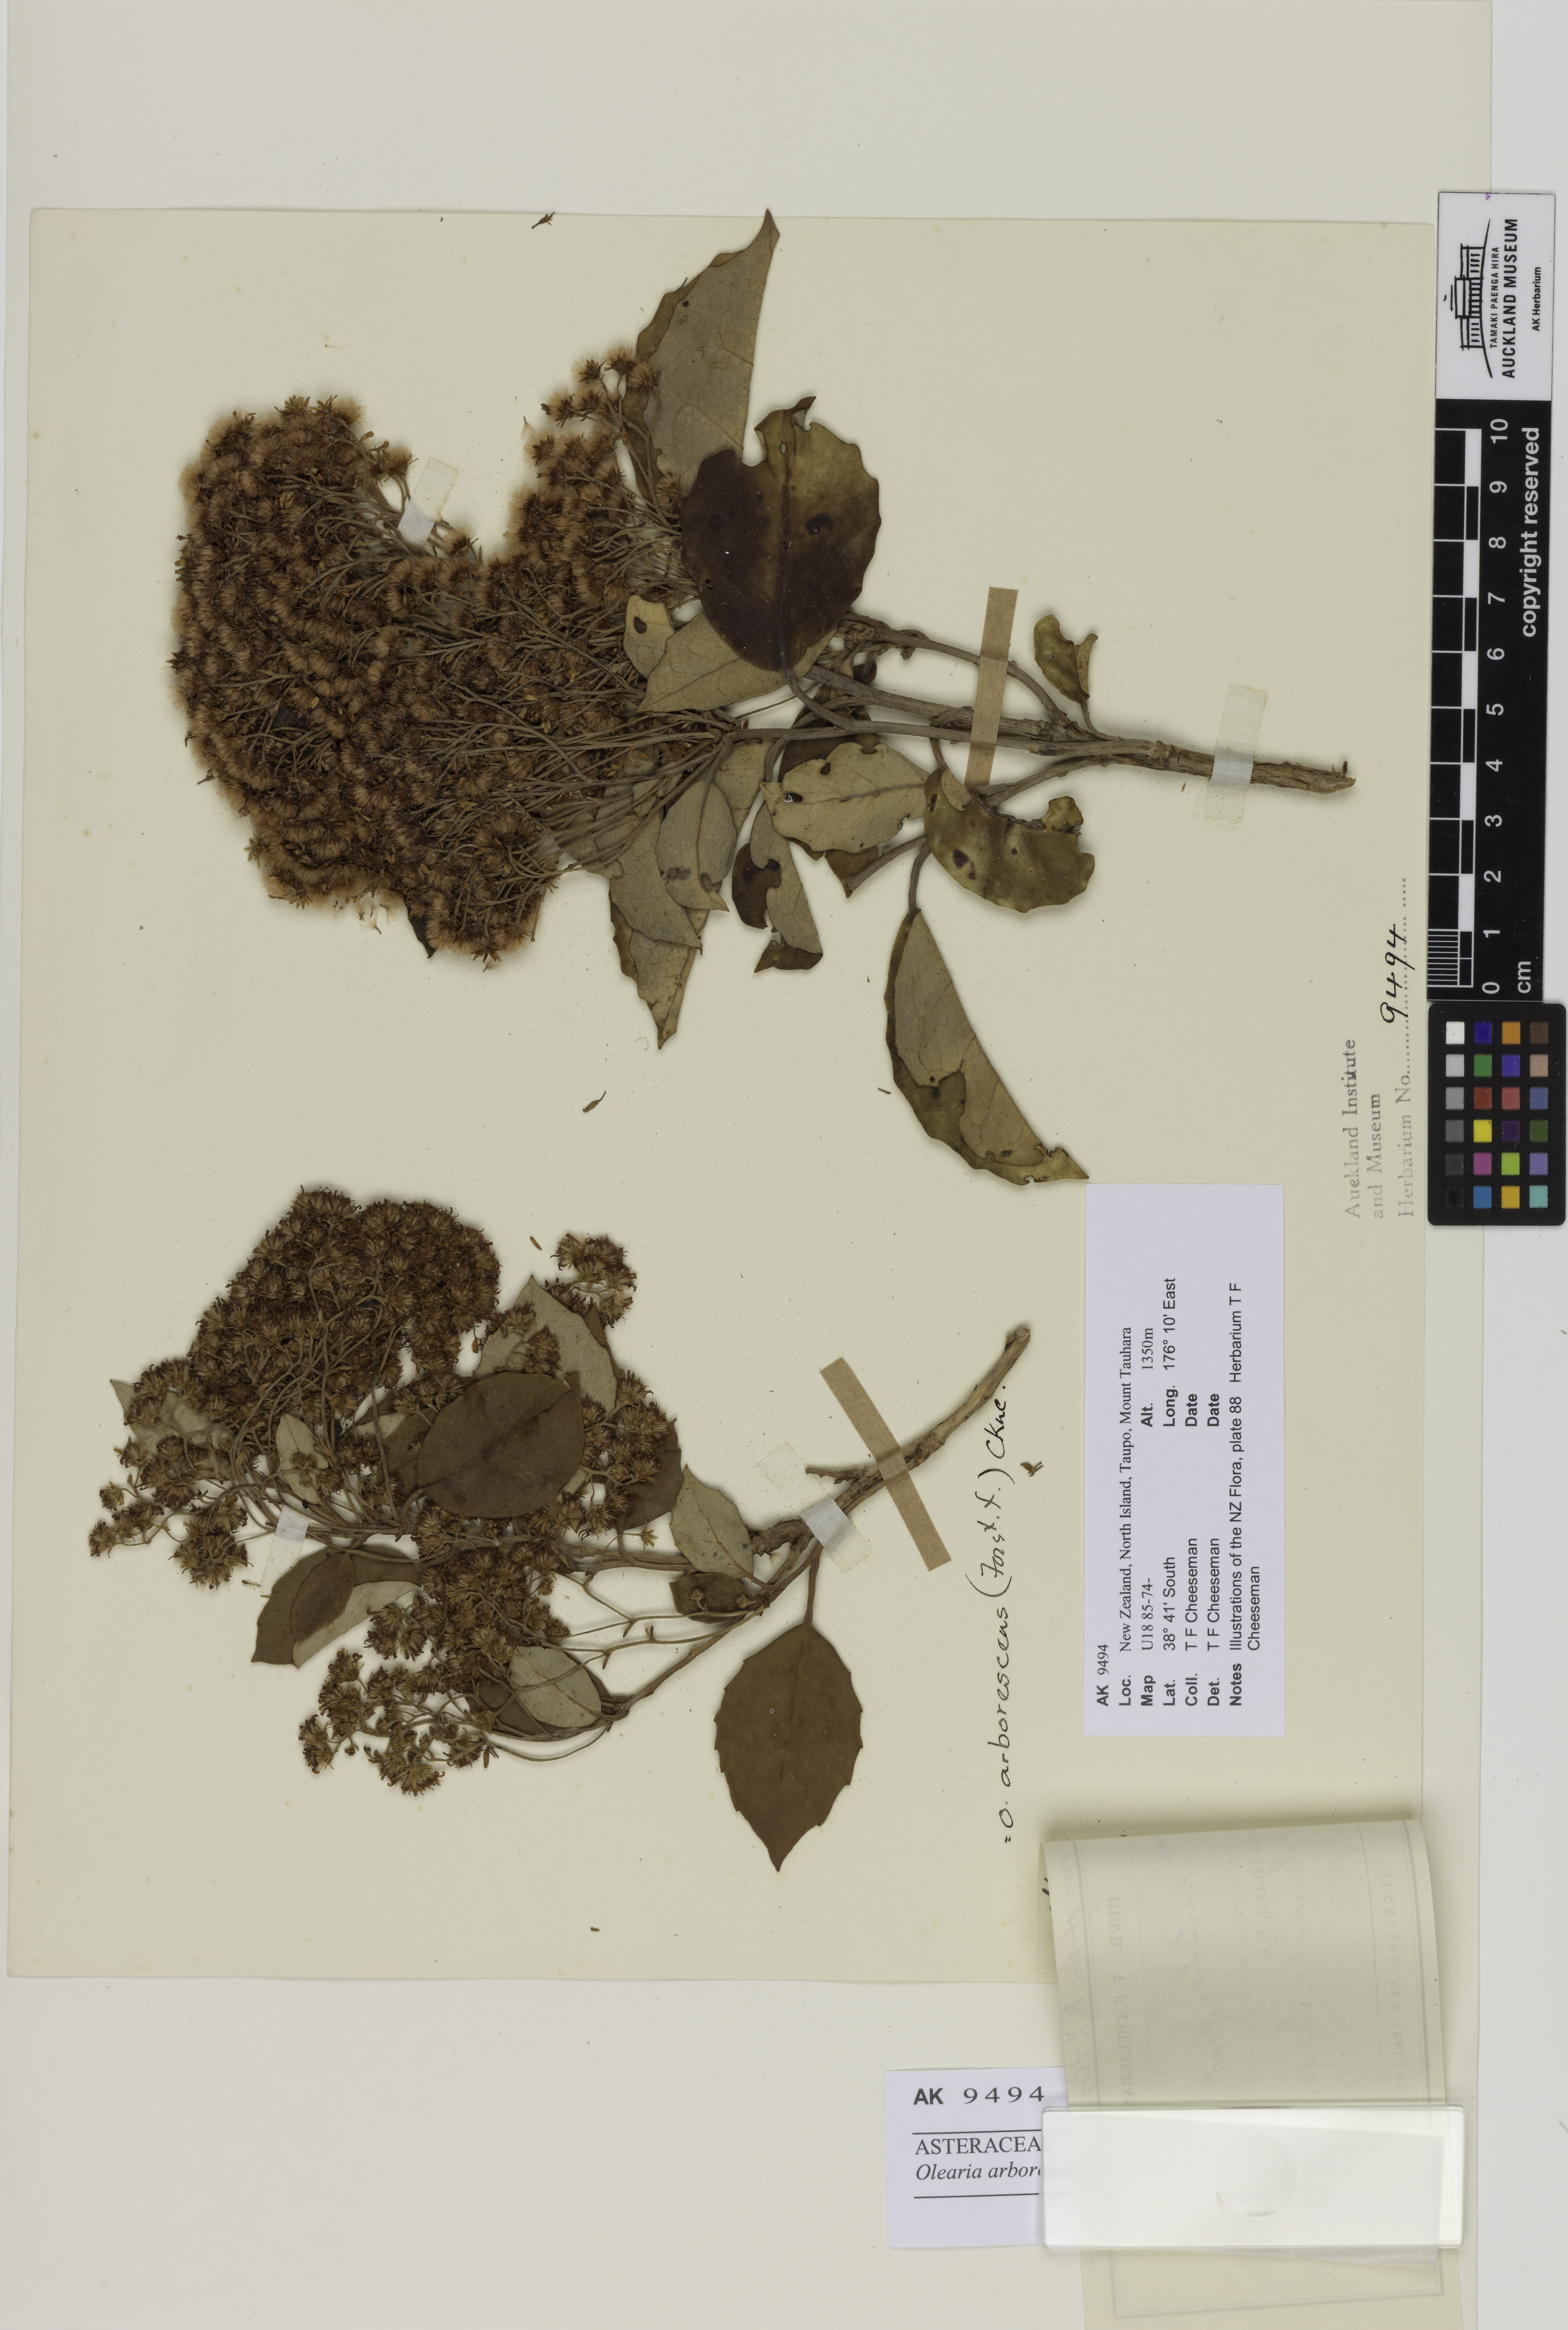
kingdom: Plantae
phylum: Tracheophyta
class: Magnoliopsida
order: Asterales
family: Asteraceae
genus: Olearia
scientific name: Olearia arborescens
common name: Glossy tree daisy
